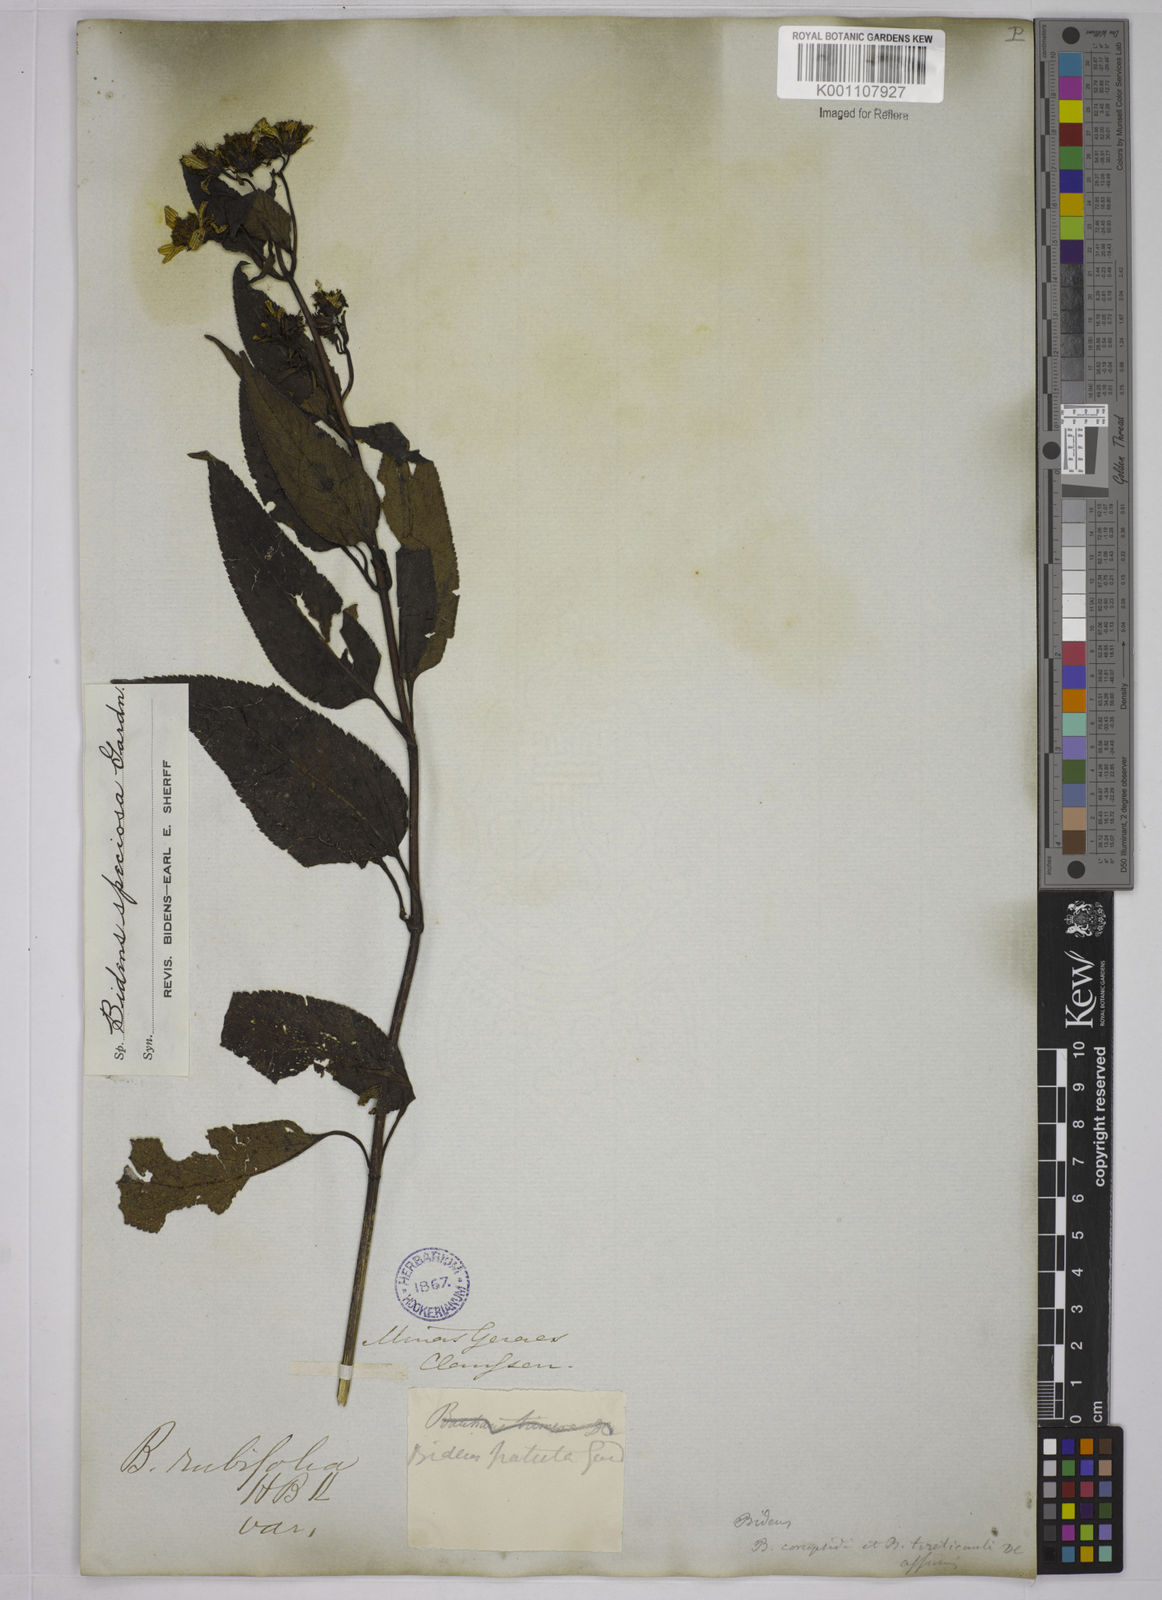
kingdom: Plantae
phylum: Tracheophyta
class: Magnoliopsida
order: Asterales
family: Asteraceae
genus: Bidens
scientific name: Bidens segetum
